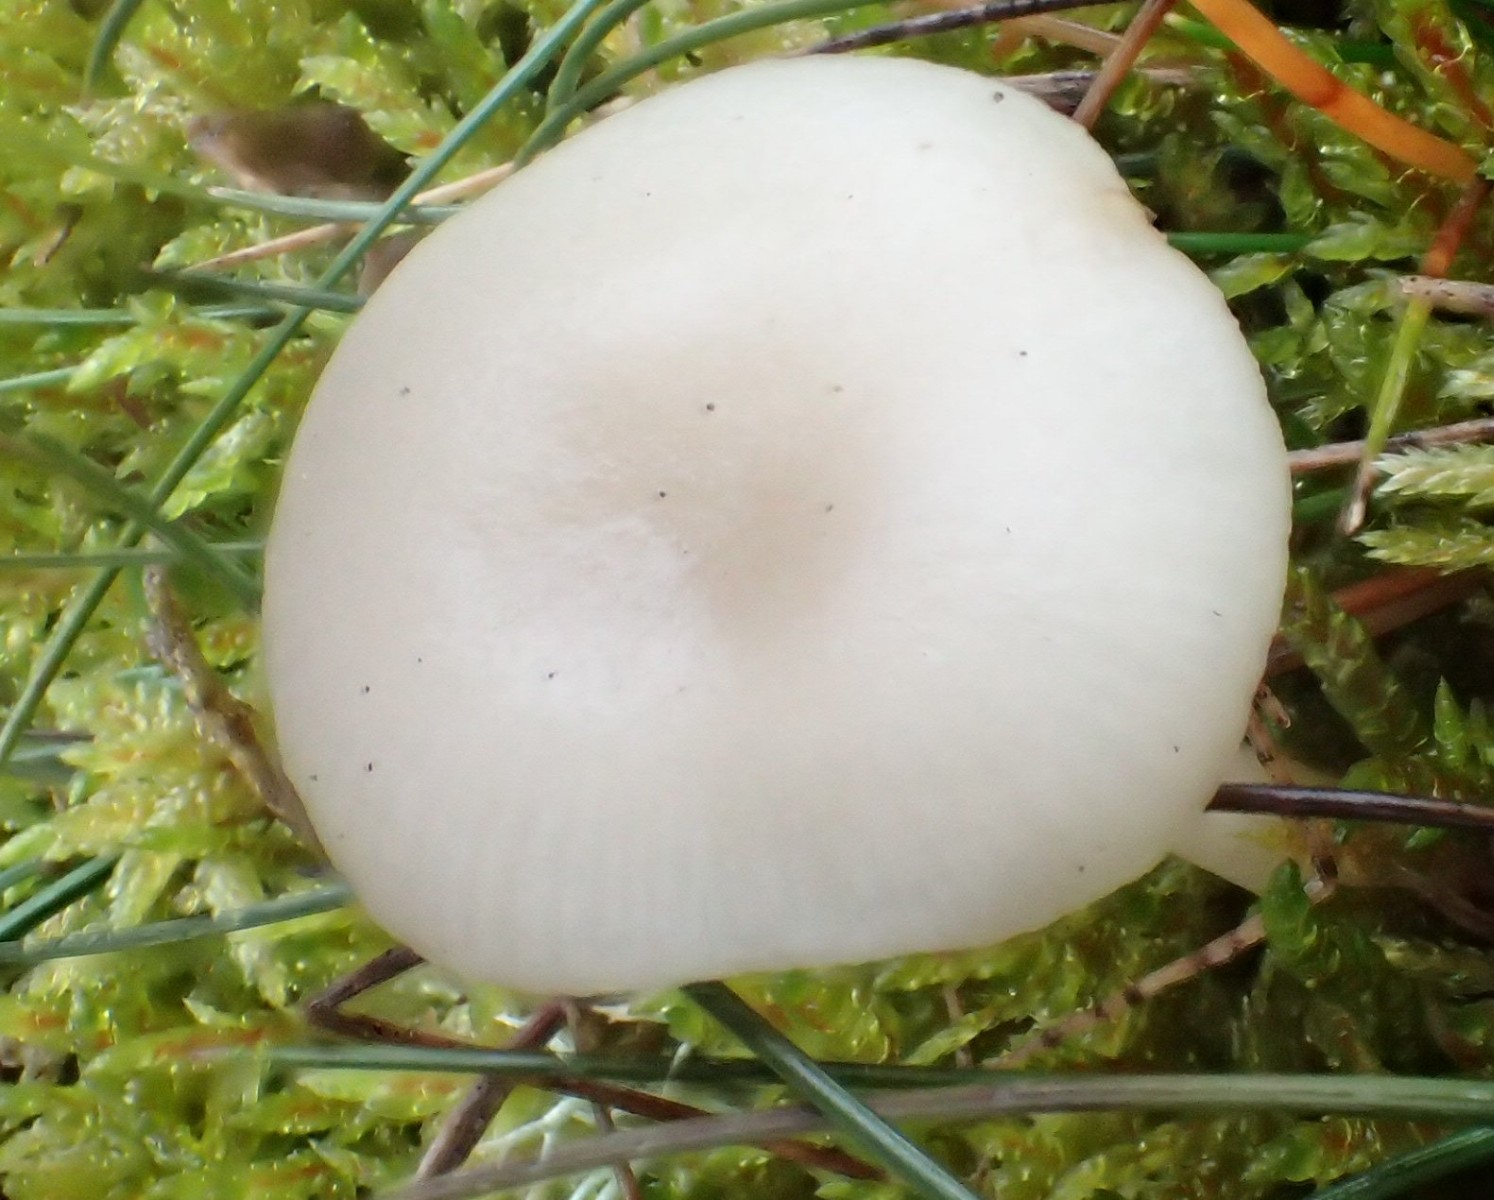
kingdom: Fungi
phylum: Basidiomycota
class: Agaricomycetes
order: Agaricales
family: Tricholomataceae
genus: Clitocybe
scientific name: Clitocybe
